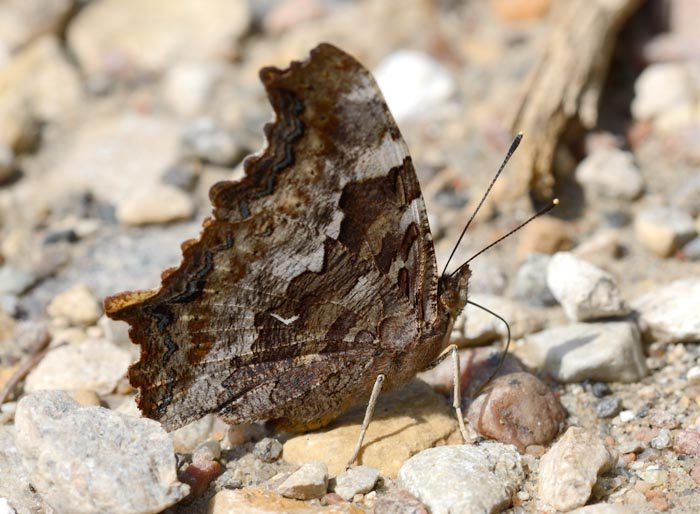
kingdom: Animalia
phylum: Arthropoda
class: Insecta
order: Lepidoptera
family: Nymphalidae
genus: Polygonia
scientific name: Polygonia vaualbum
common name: Compton Tortoiseshell
